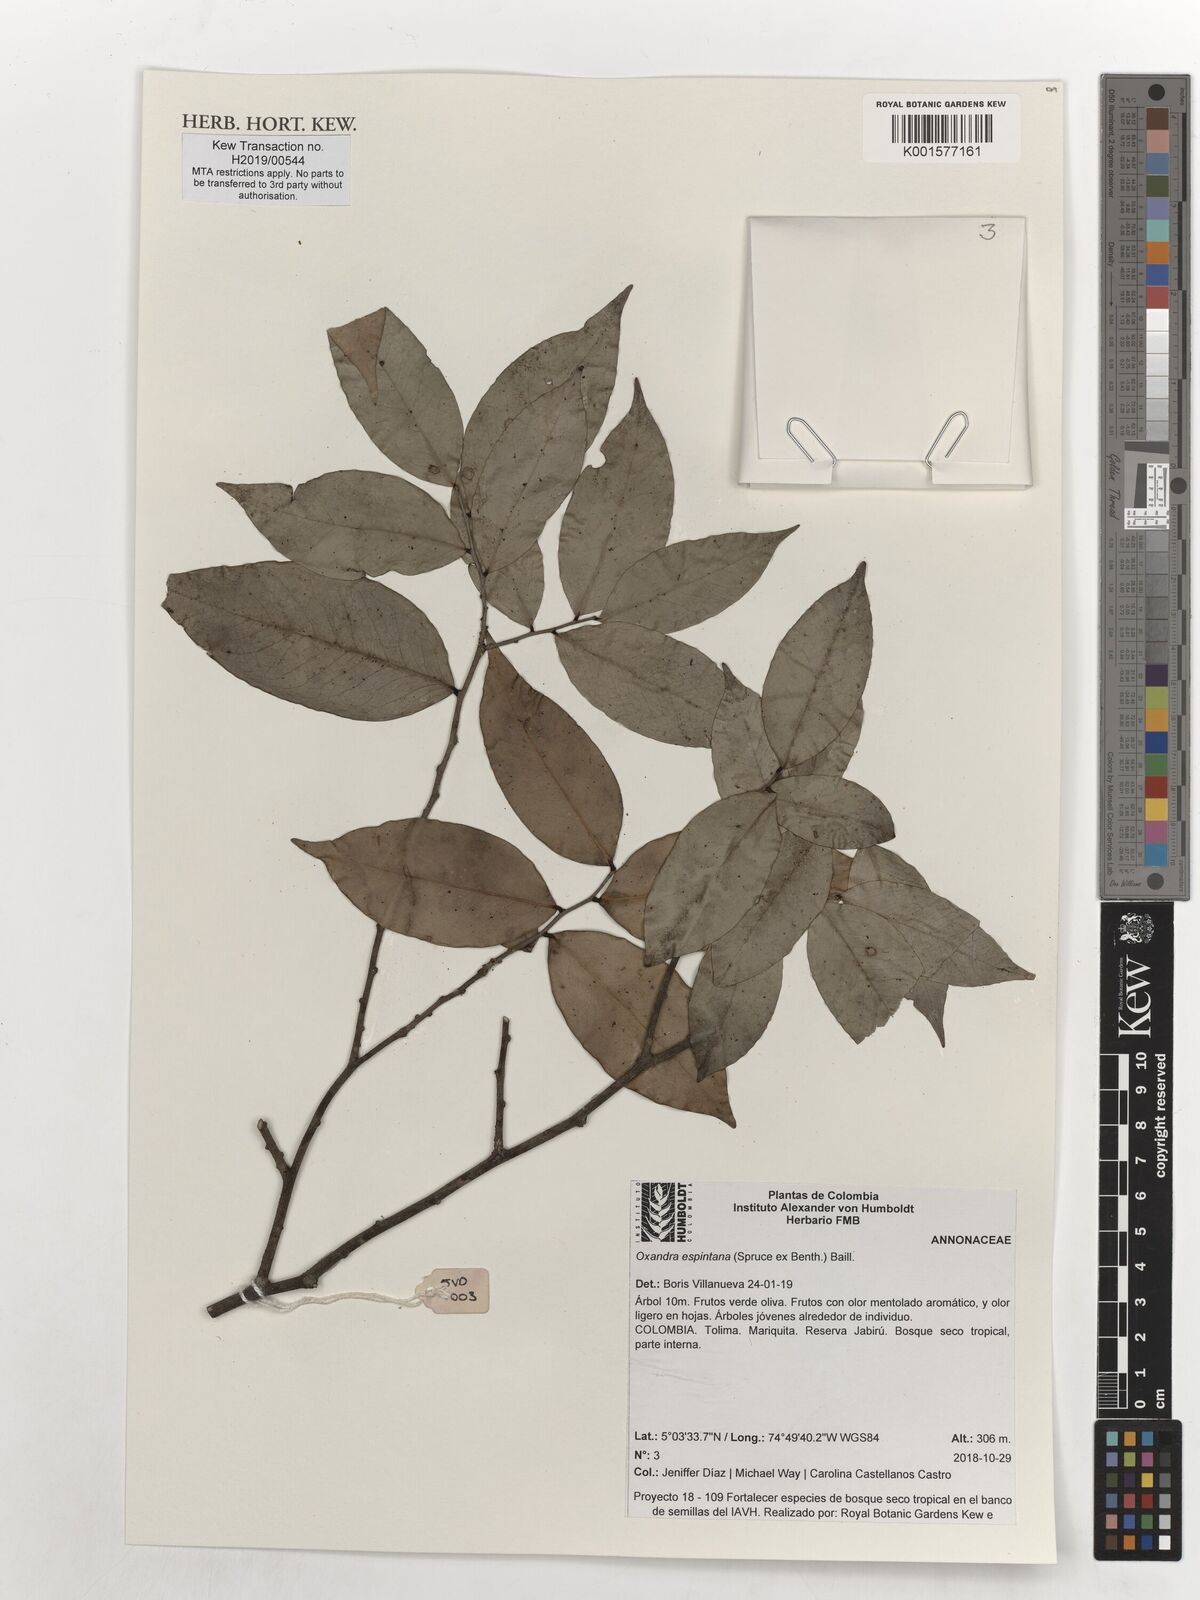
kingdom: Plantae
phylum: Tracheophyta
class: Magnoliopsida
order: Magnoliales
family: Annonaceae
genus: Oxandra
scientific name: Oxandra espintana
